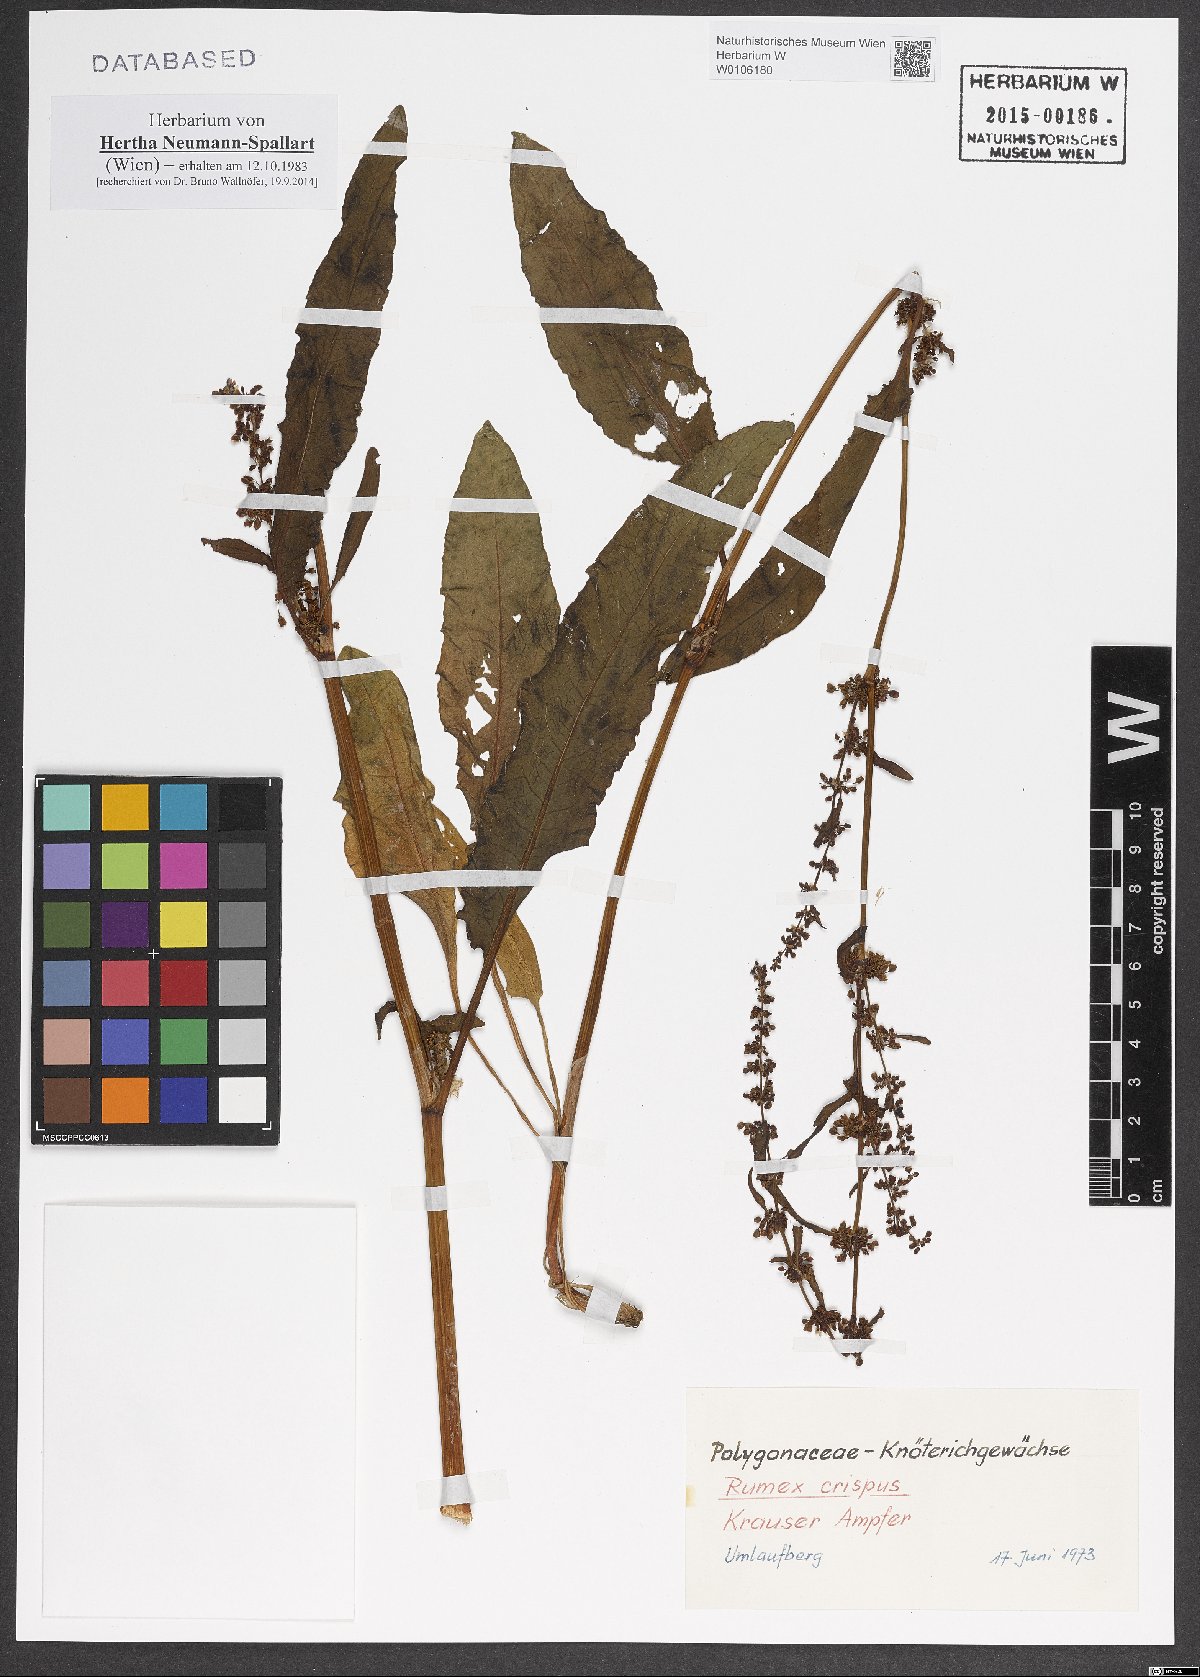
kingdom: Plantae
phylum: Tracheophyta
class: Magnoliopsida
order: Caryophyllales
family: Polygonaceae
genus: Rumex
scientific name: Rumex crispus
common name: Curled dock
